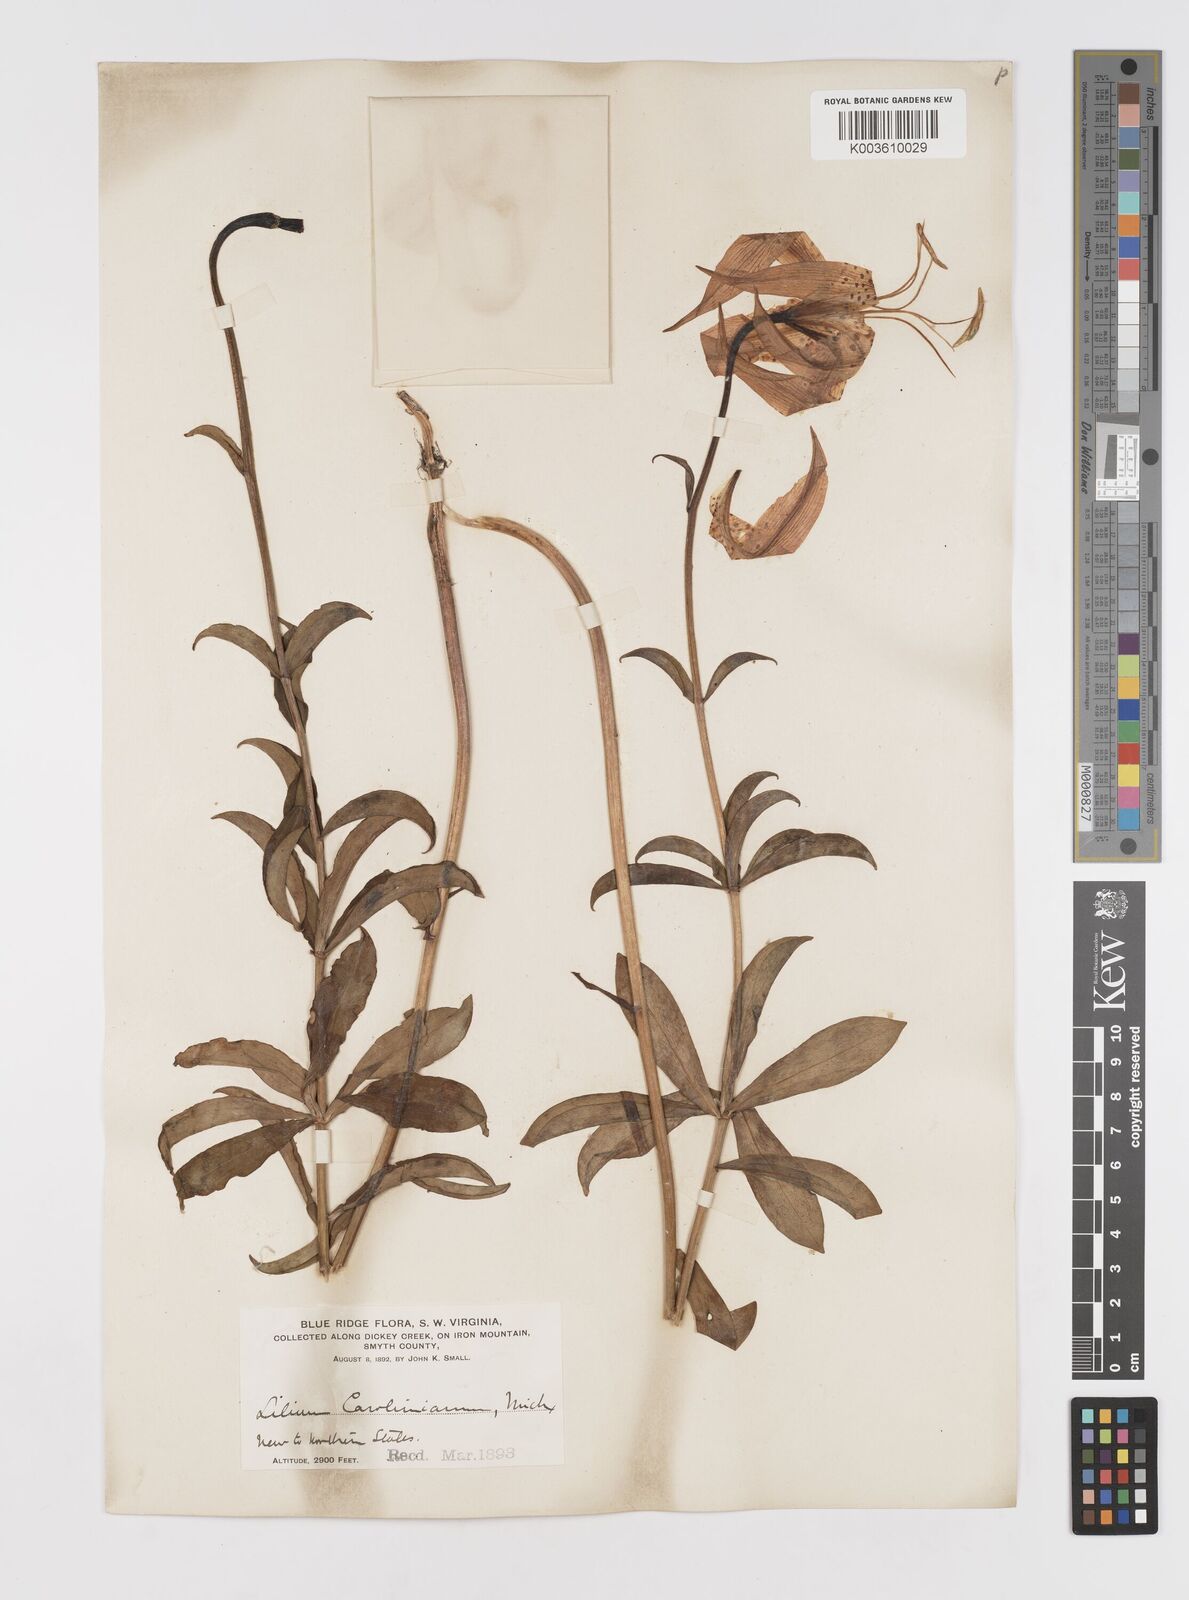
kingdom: Plantae
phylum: Tracheophyta
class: Liliopsida
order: Liliales
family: Liliaceae
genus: Lilium
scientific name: Lilium michauxii
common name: Carolina lily
